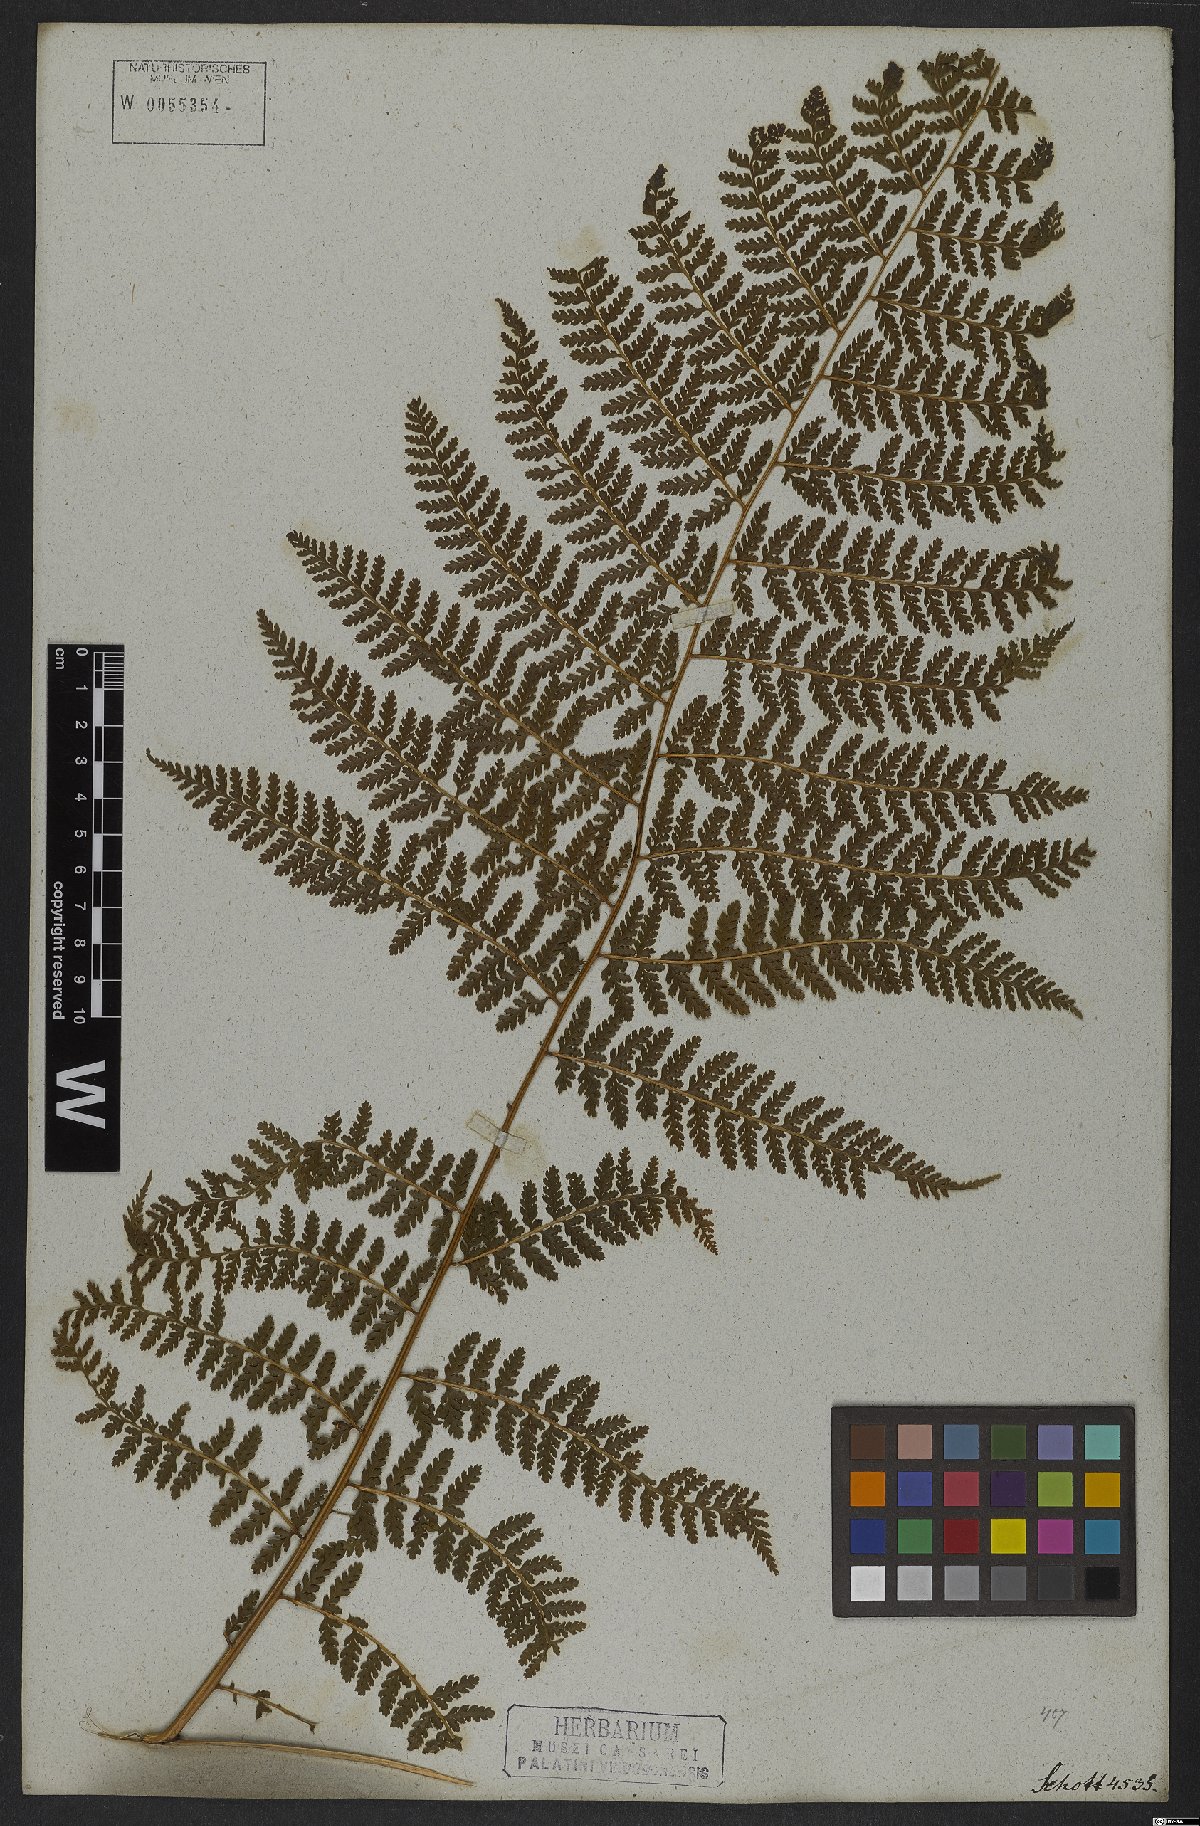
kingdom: Plantae
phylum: Tracheophyta
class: Polypodiopsida
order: Polypodiales
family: Dennstaedtiaceae
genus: Dennstaedtia
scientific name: Dennstaedtia cicutaria
